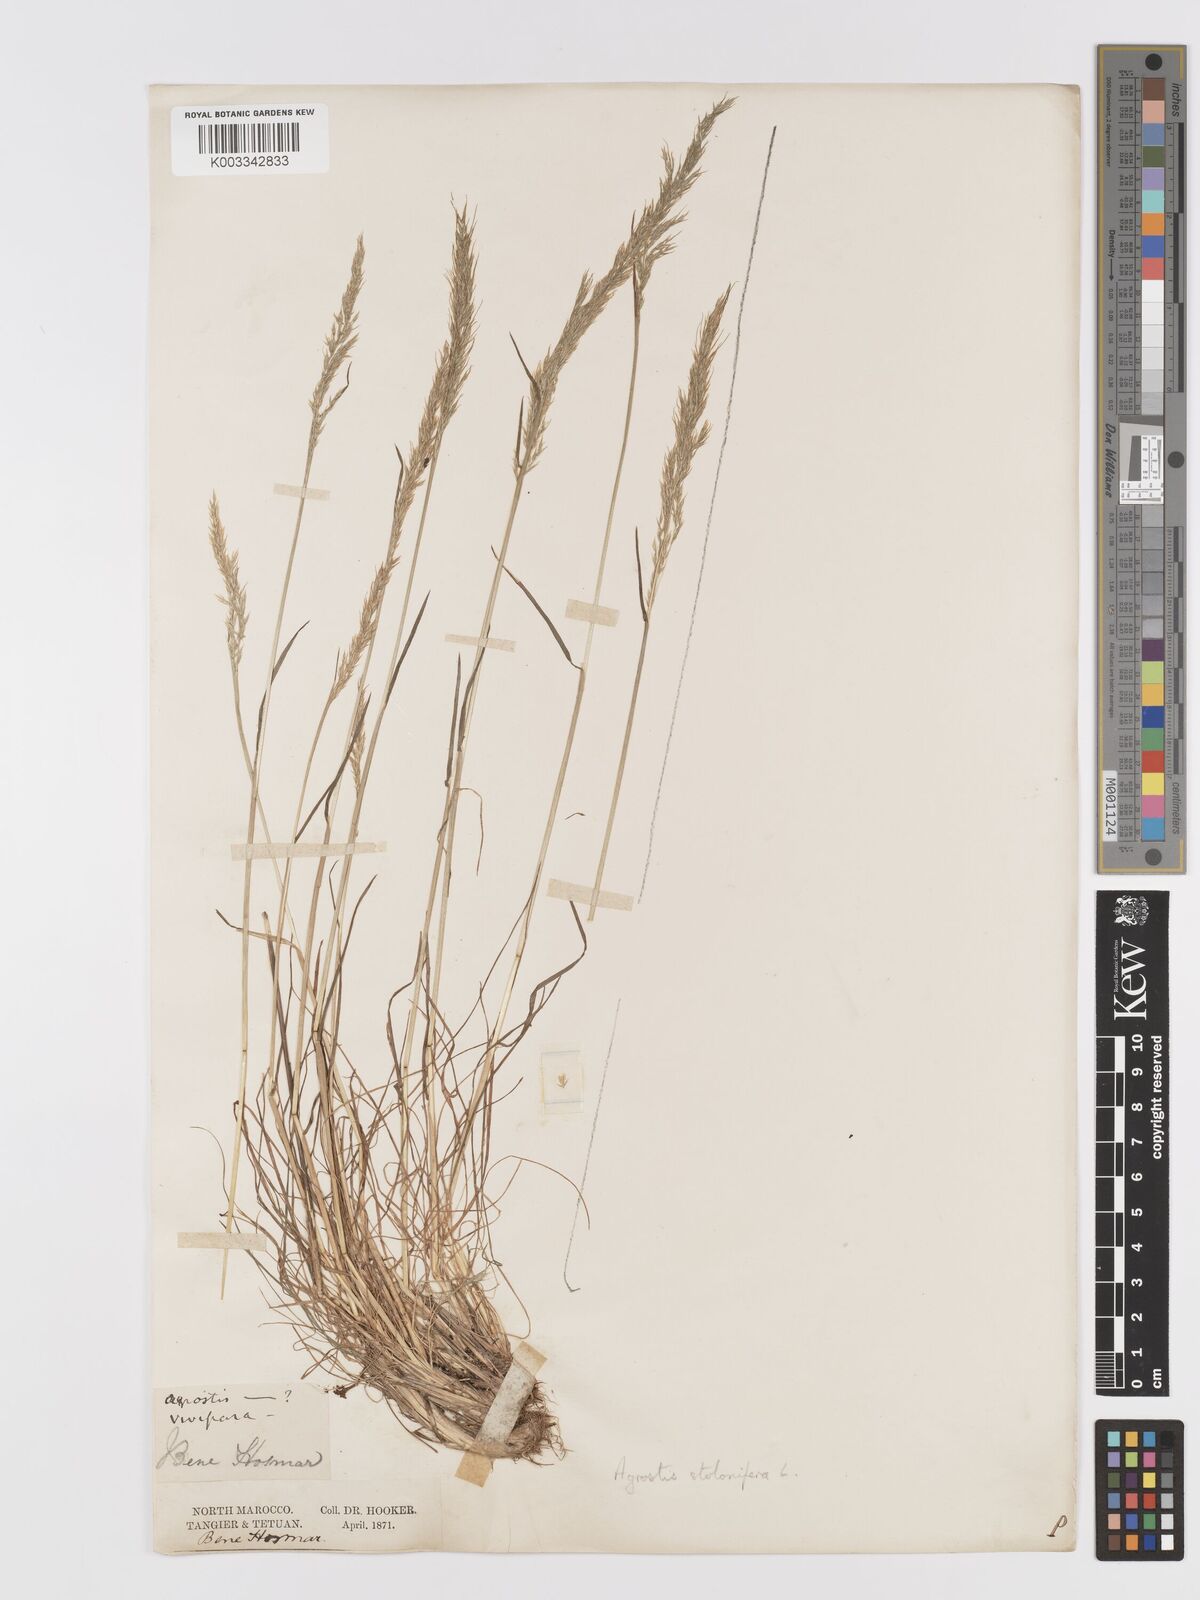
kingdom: Plantae
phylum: Tracheophyta
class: Liliopsida
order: Poales
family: Poaceae
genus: Agrostis
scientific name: Agrostis stolonifera
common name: Creeping bentgrass
